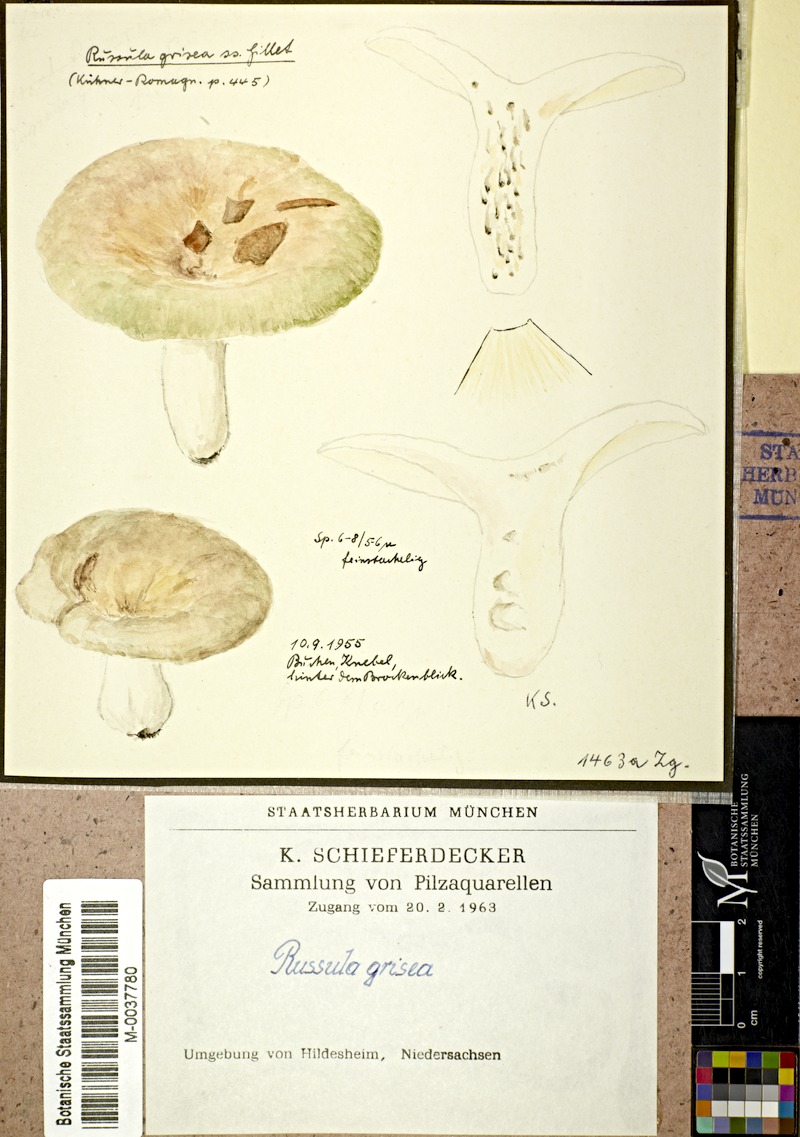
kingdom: Fungi
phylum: Basidiomycota
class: Agaricomycetes
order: Russulales
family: Russulaceae
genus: Russula
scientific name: Russula grisea
